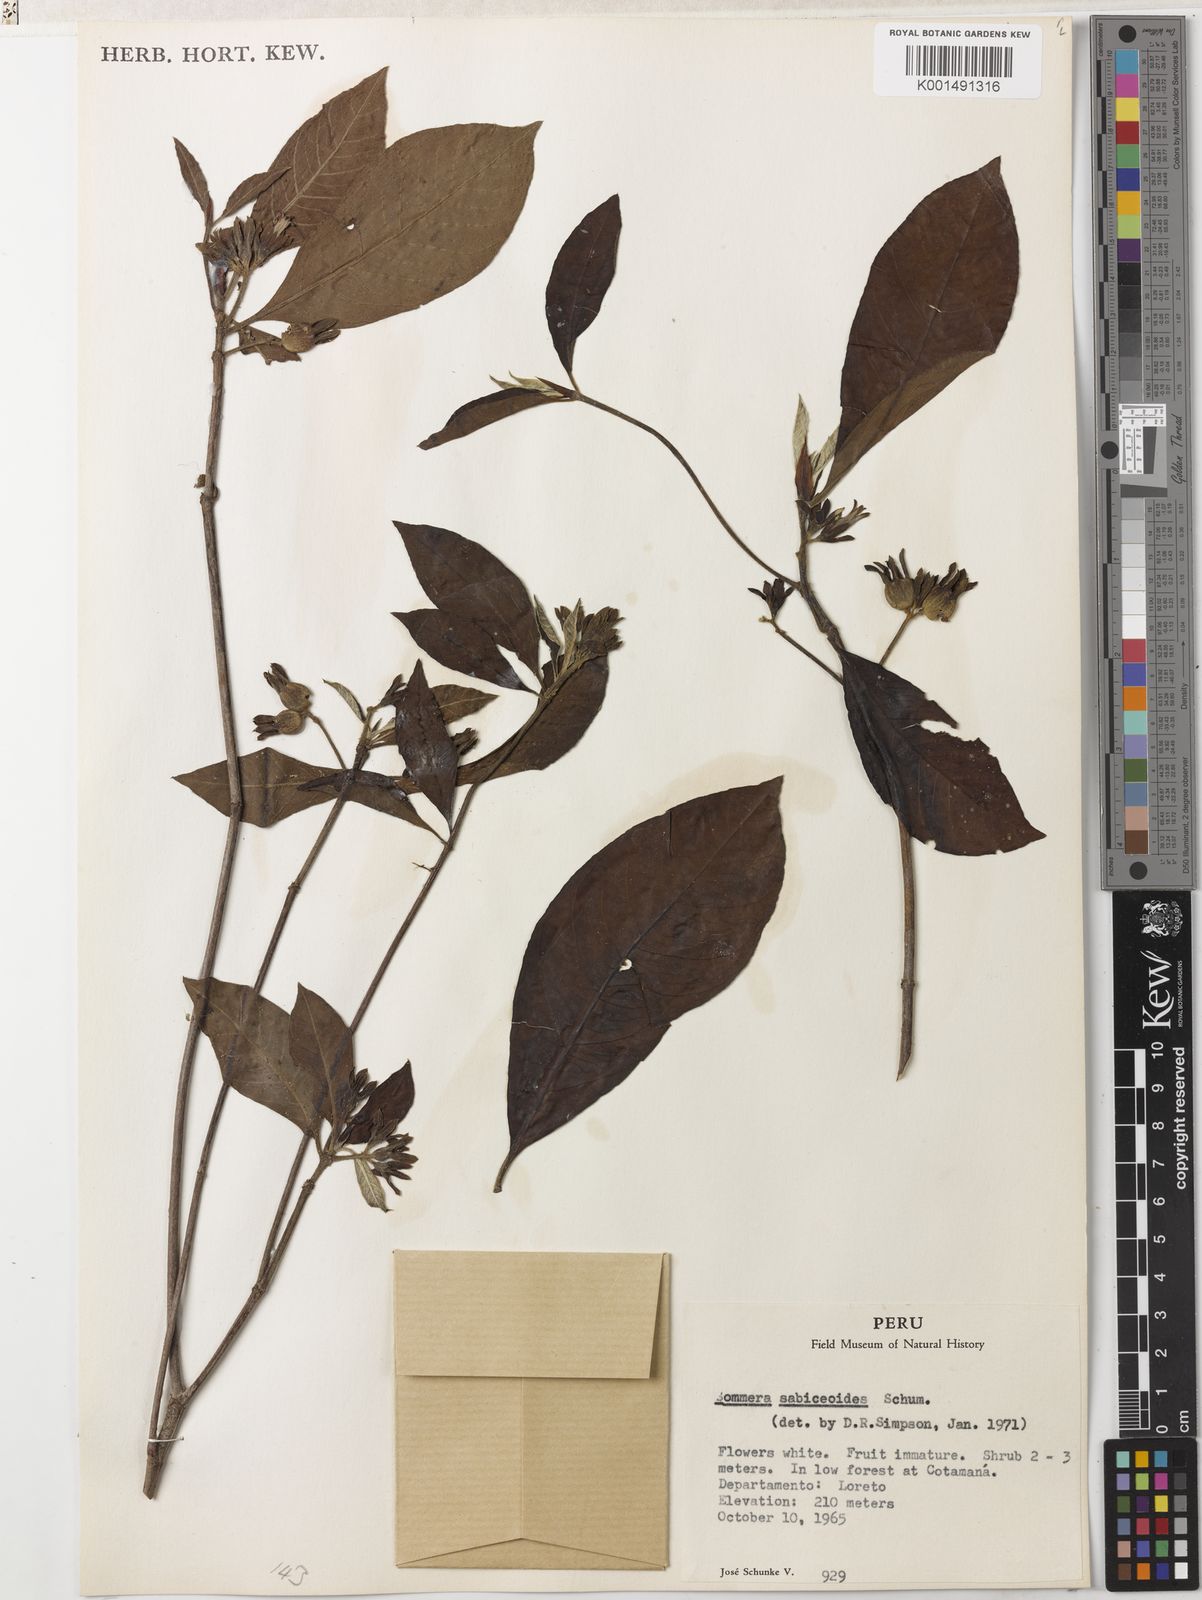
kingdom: Plantae
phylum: Tracheophyta
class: Magnoliopsida
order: Gentianales
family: Rubiaceae
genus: Sommera
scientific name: Sommera sabiceoides
